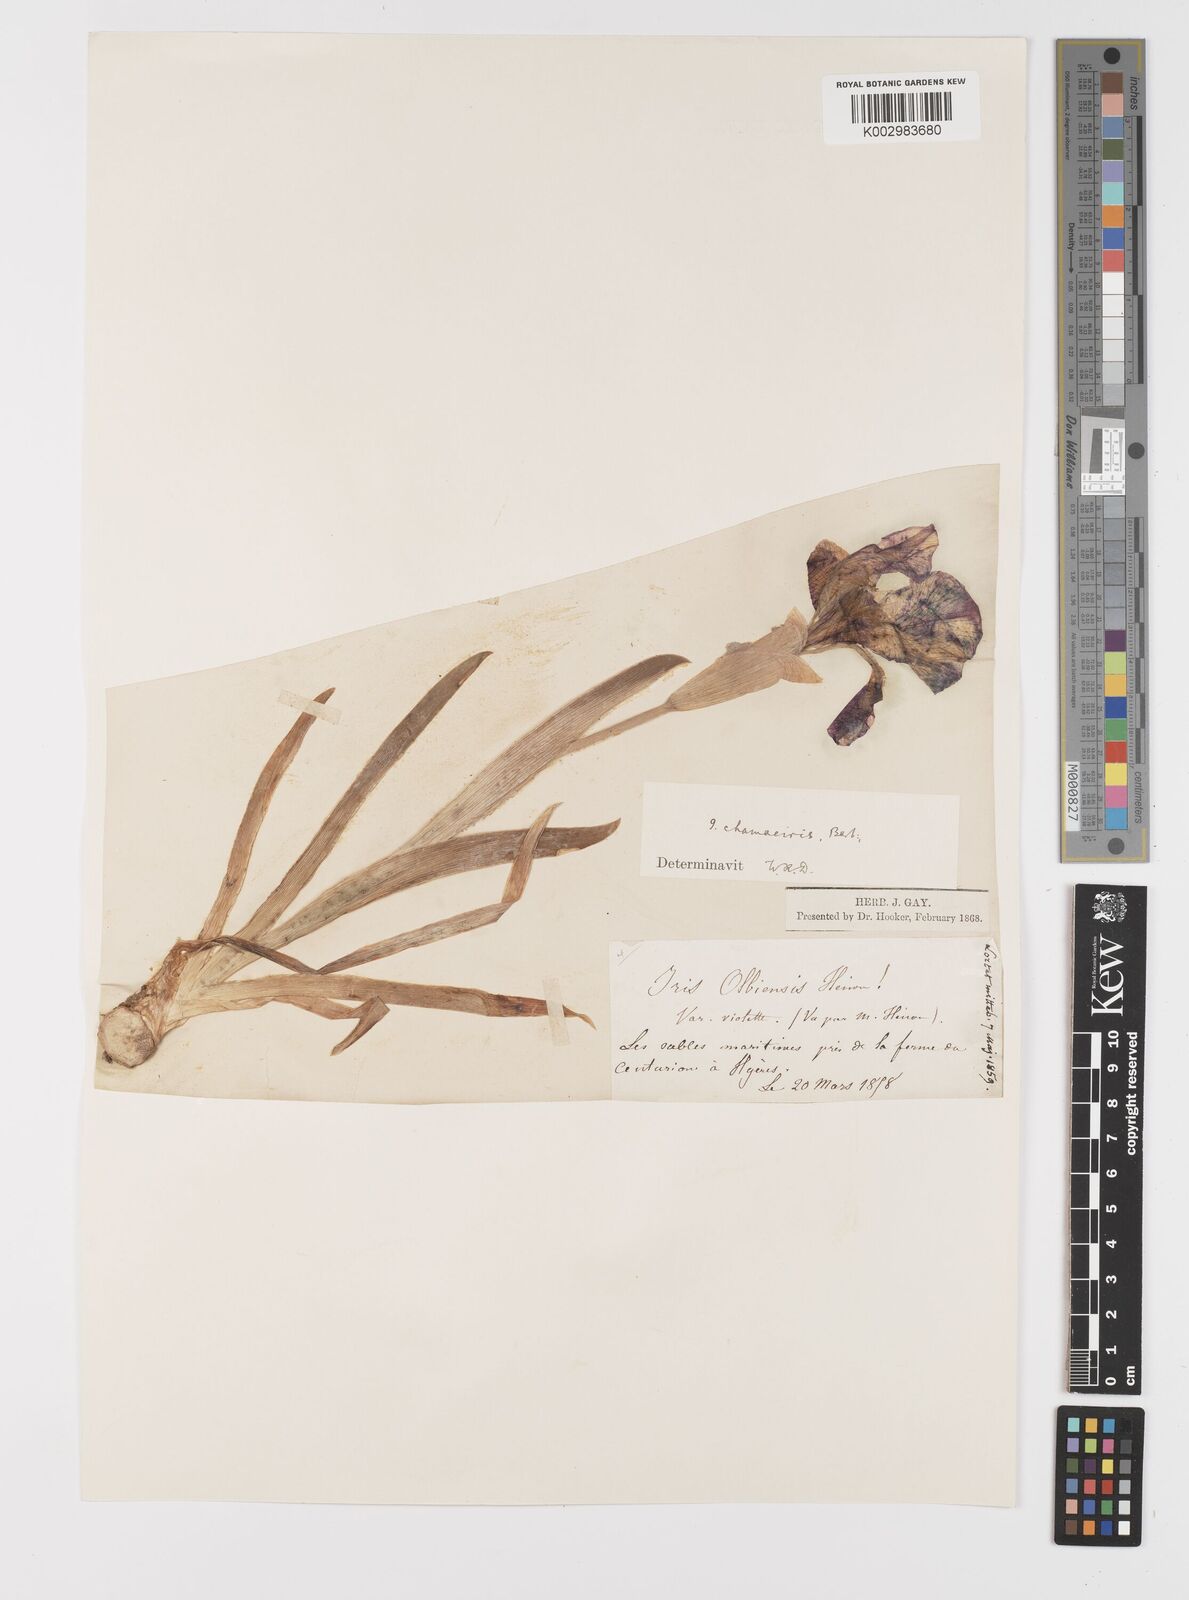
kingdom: Plantae
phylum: Tracheophyta
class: Liliopsida
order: Asparagales
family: Iridaceae
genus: Iris
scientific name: Iris lutescens
